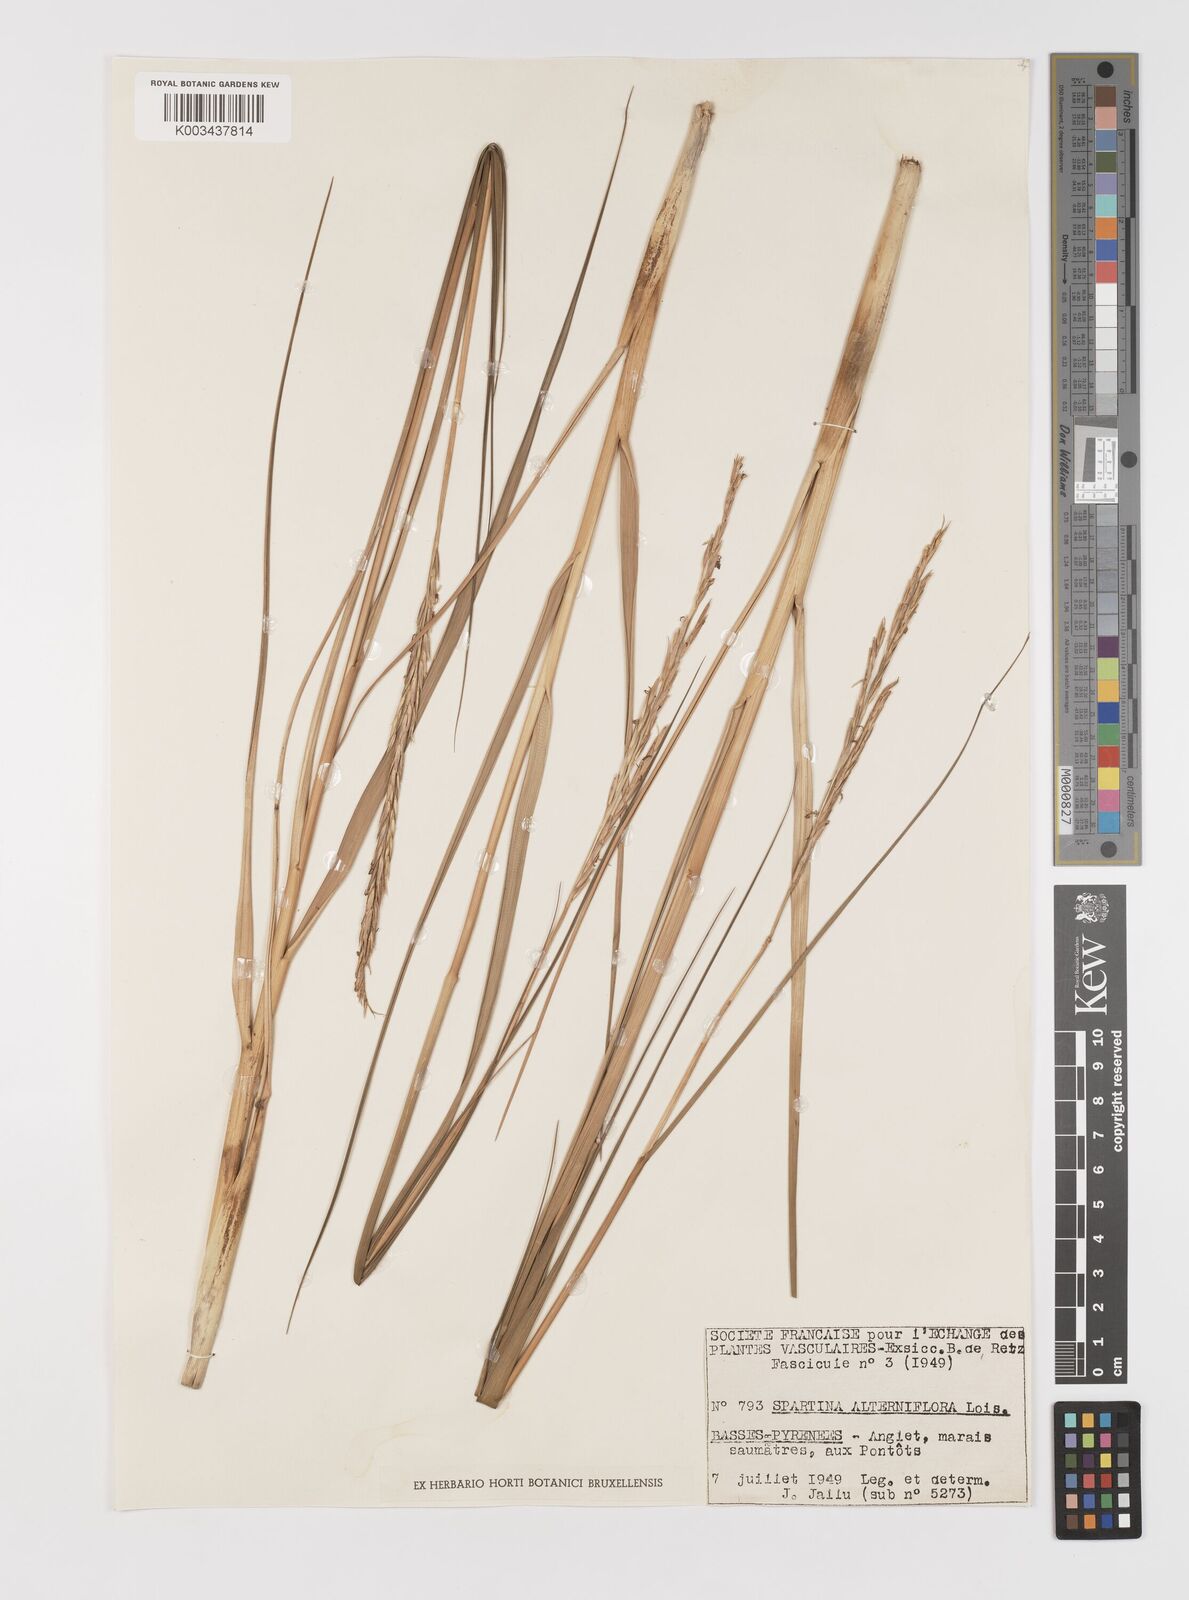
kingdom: Plantae
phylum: Tracheophyta
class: Liliopsida
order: Poales
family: Poaceae
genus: Sporobolus
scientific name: Sporobolus alterniflorus
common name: Atlantic cordgrass
